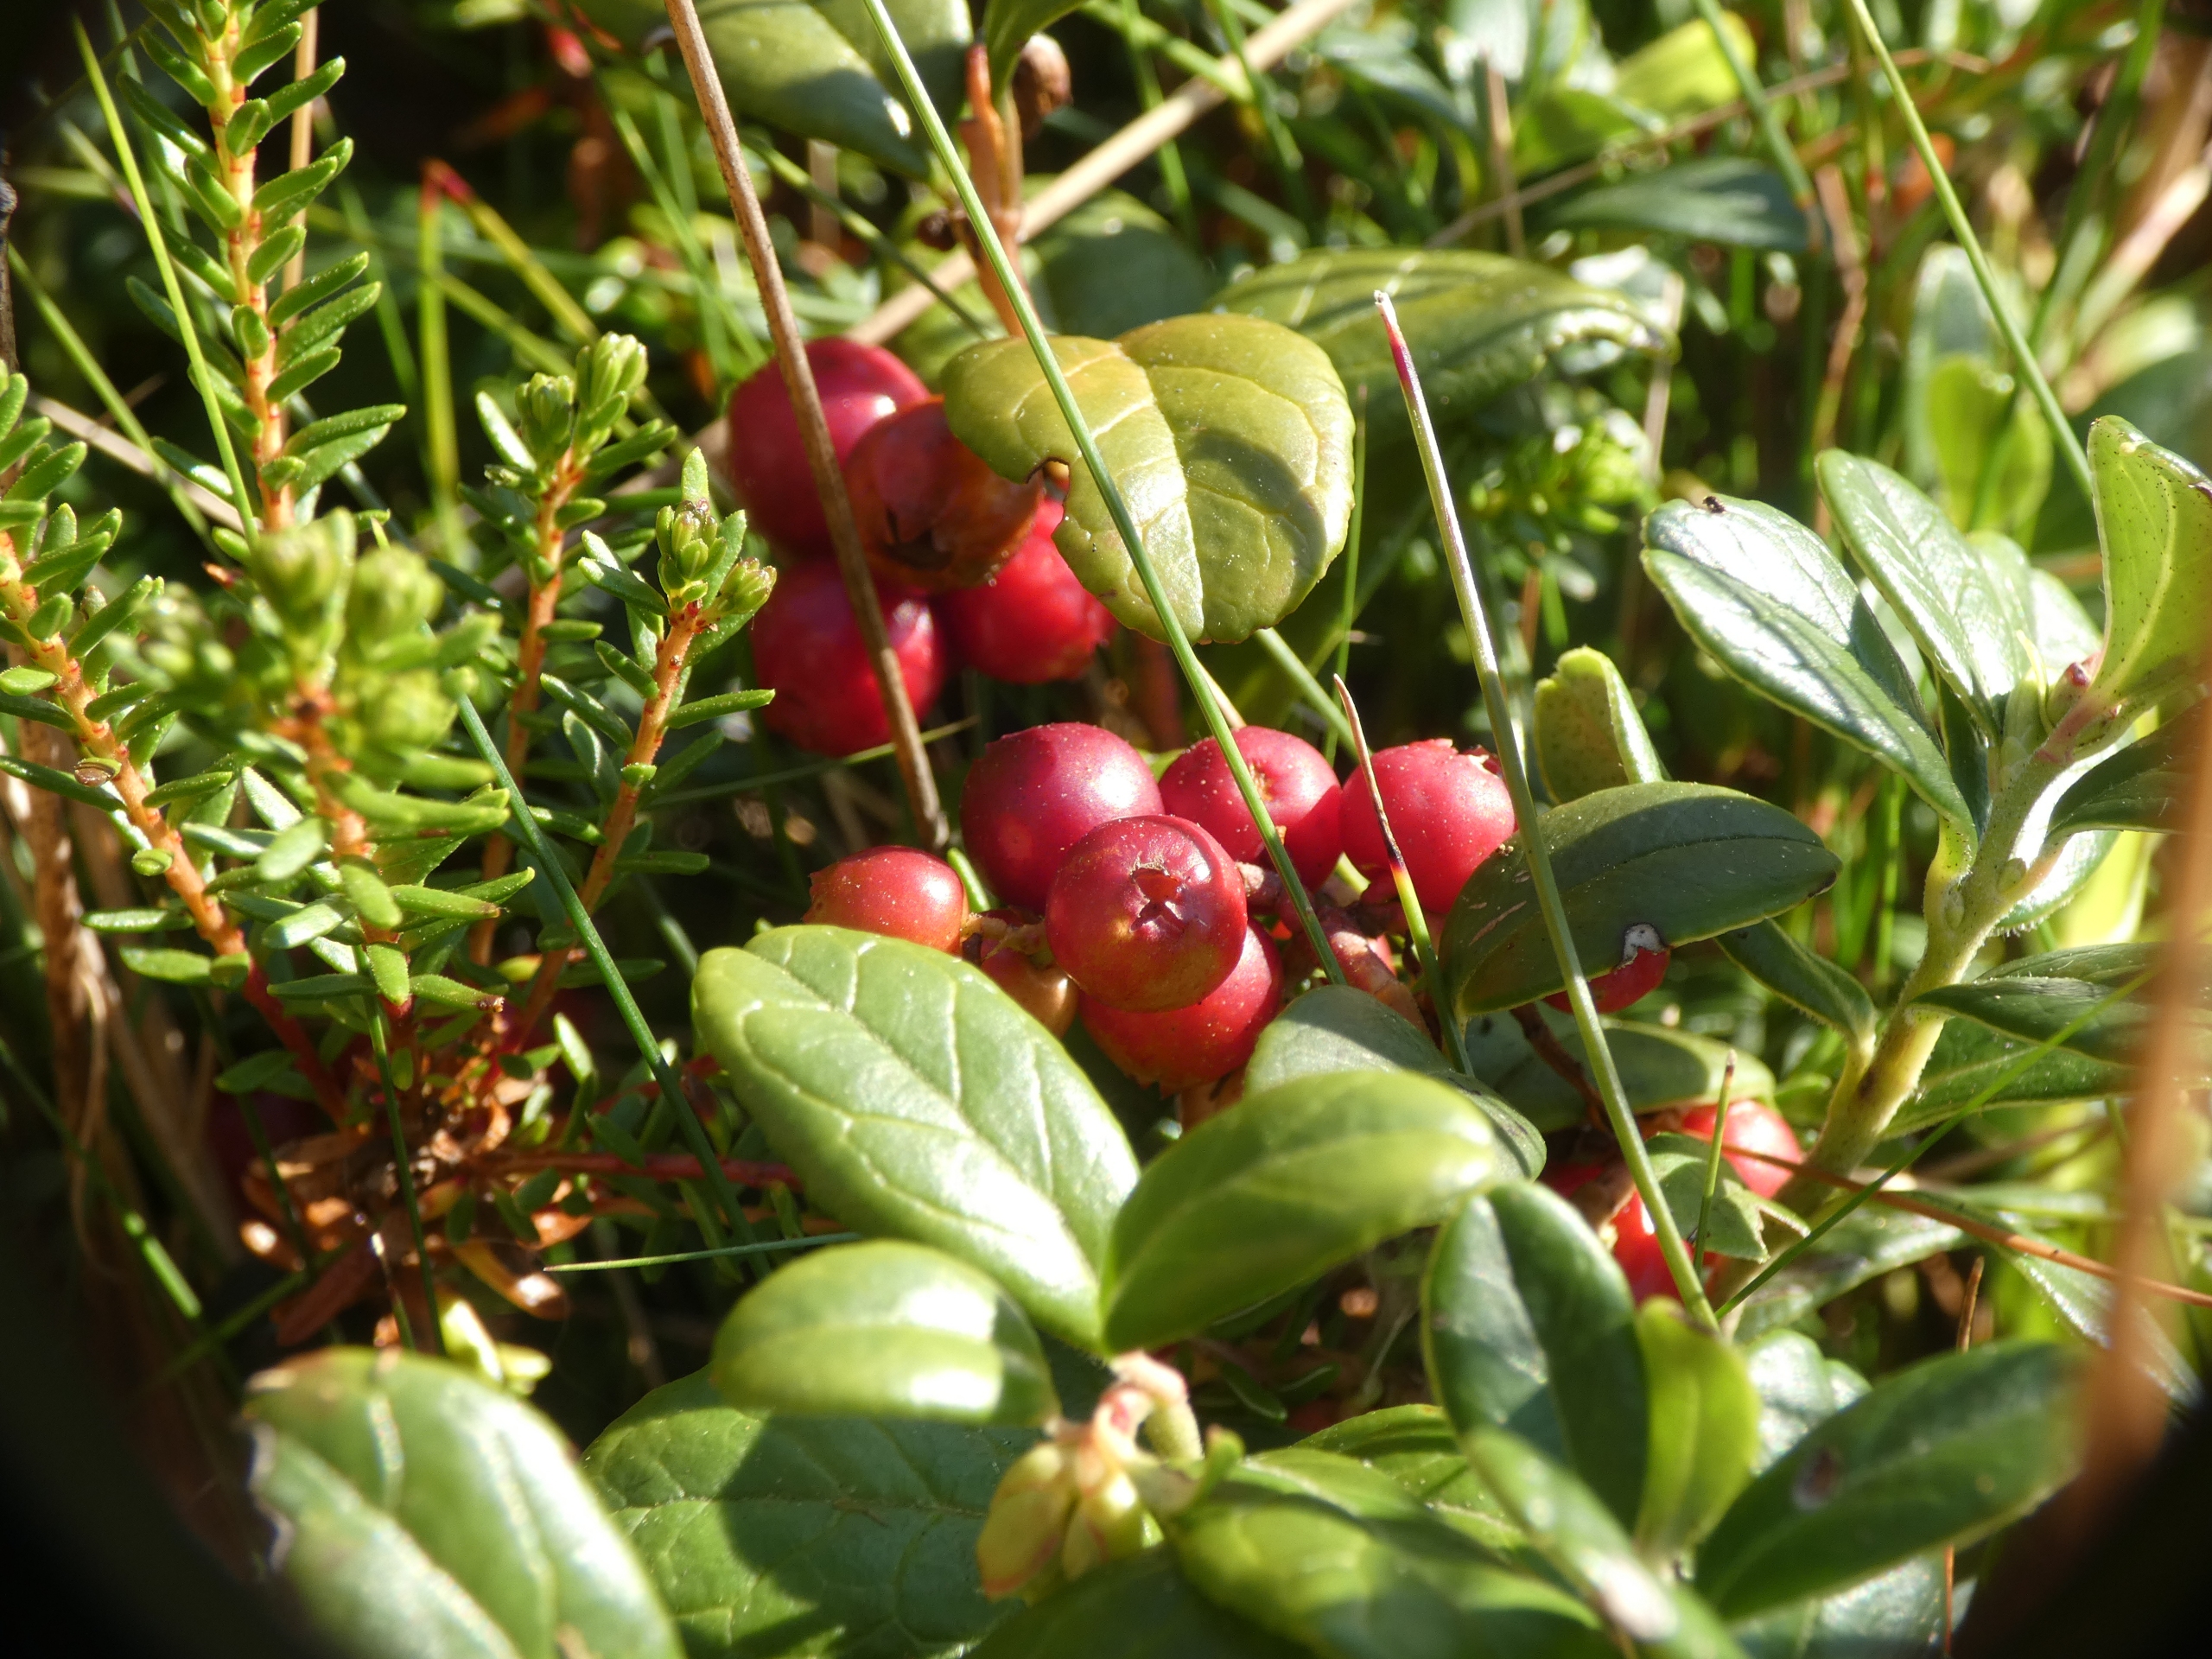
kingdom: Plantae
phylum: Tracheophyta
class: Magnoliopsida
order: Ericales
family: Ericaceae
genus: Vaccinium
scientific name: Vaccinium vitis-idaea
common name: Tyttebær
